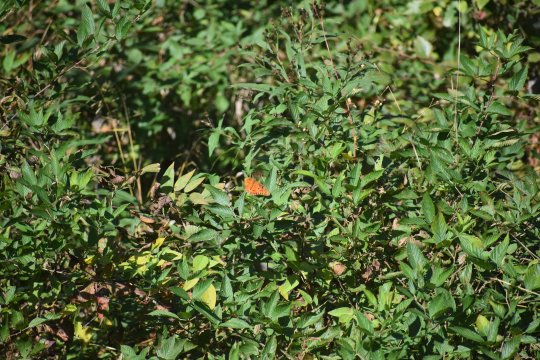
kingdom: Animalia
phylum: Arthropoda
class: Insecta
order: Lepidoptera
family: Nymphalidae
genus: Dione
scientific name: Dione vanillae
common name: Gulf Fritillary
